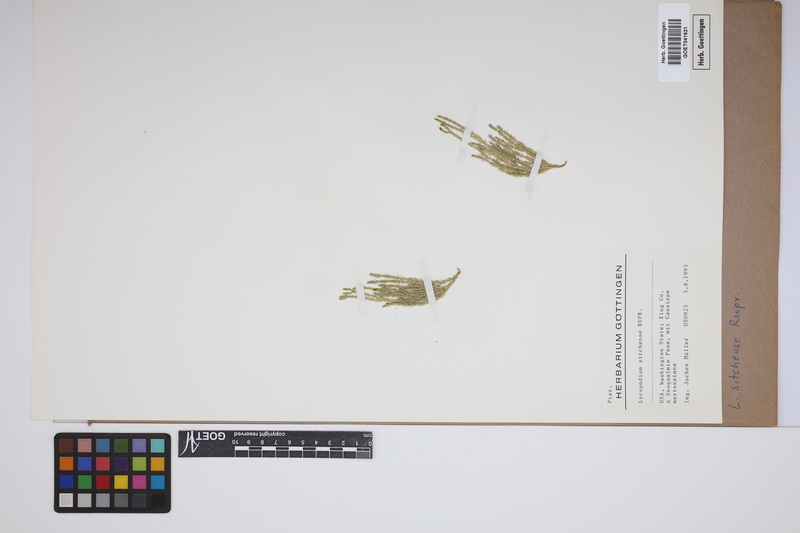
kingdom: Plantae
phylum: Tracheophyta
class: Lycopodiopsida
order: Lycopodiales
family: Lycopodiaceae
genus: Diphasiastrum
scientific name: Diphasiastrum sitchense
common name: Alaska clubmoss
